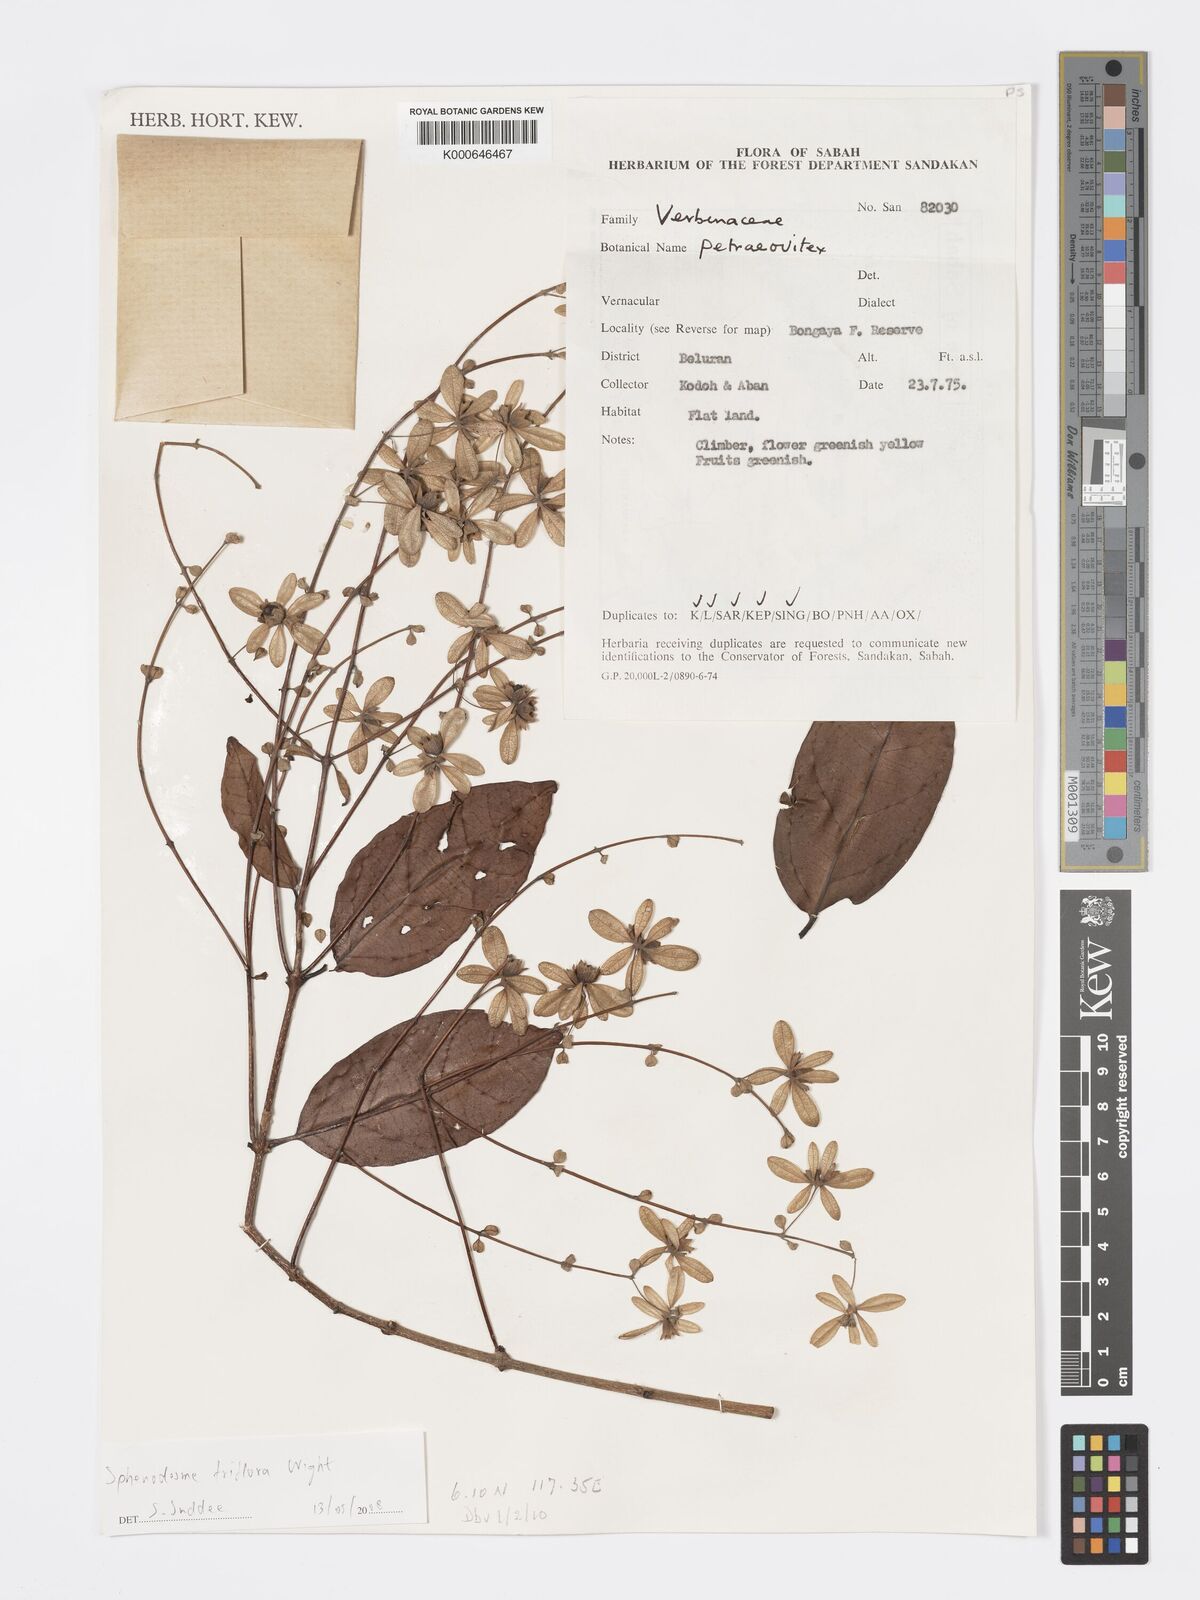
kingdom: Plantae
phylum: Tracheophyta
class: Magnoliopsida
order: Lamiales
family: Lamiaceae
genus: Sphenodesme
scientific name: Sphenodesme triflora
